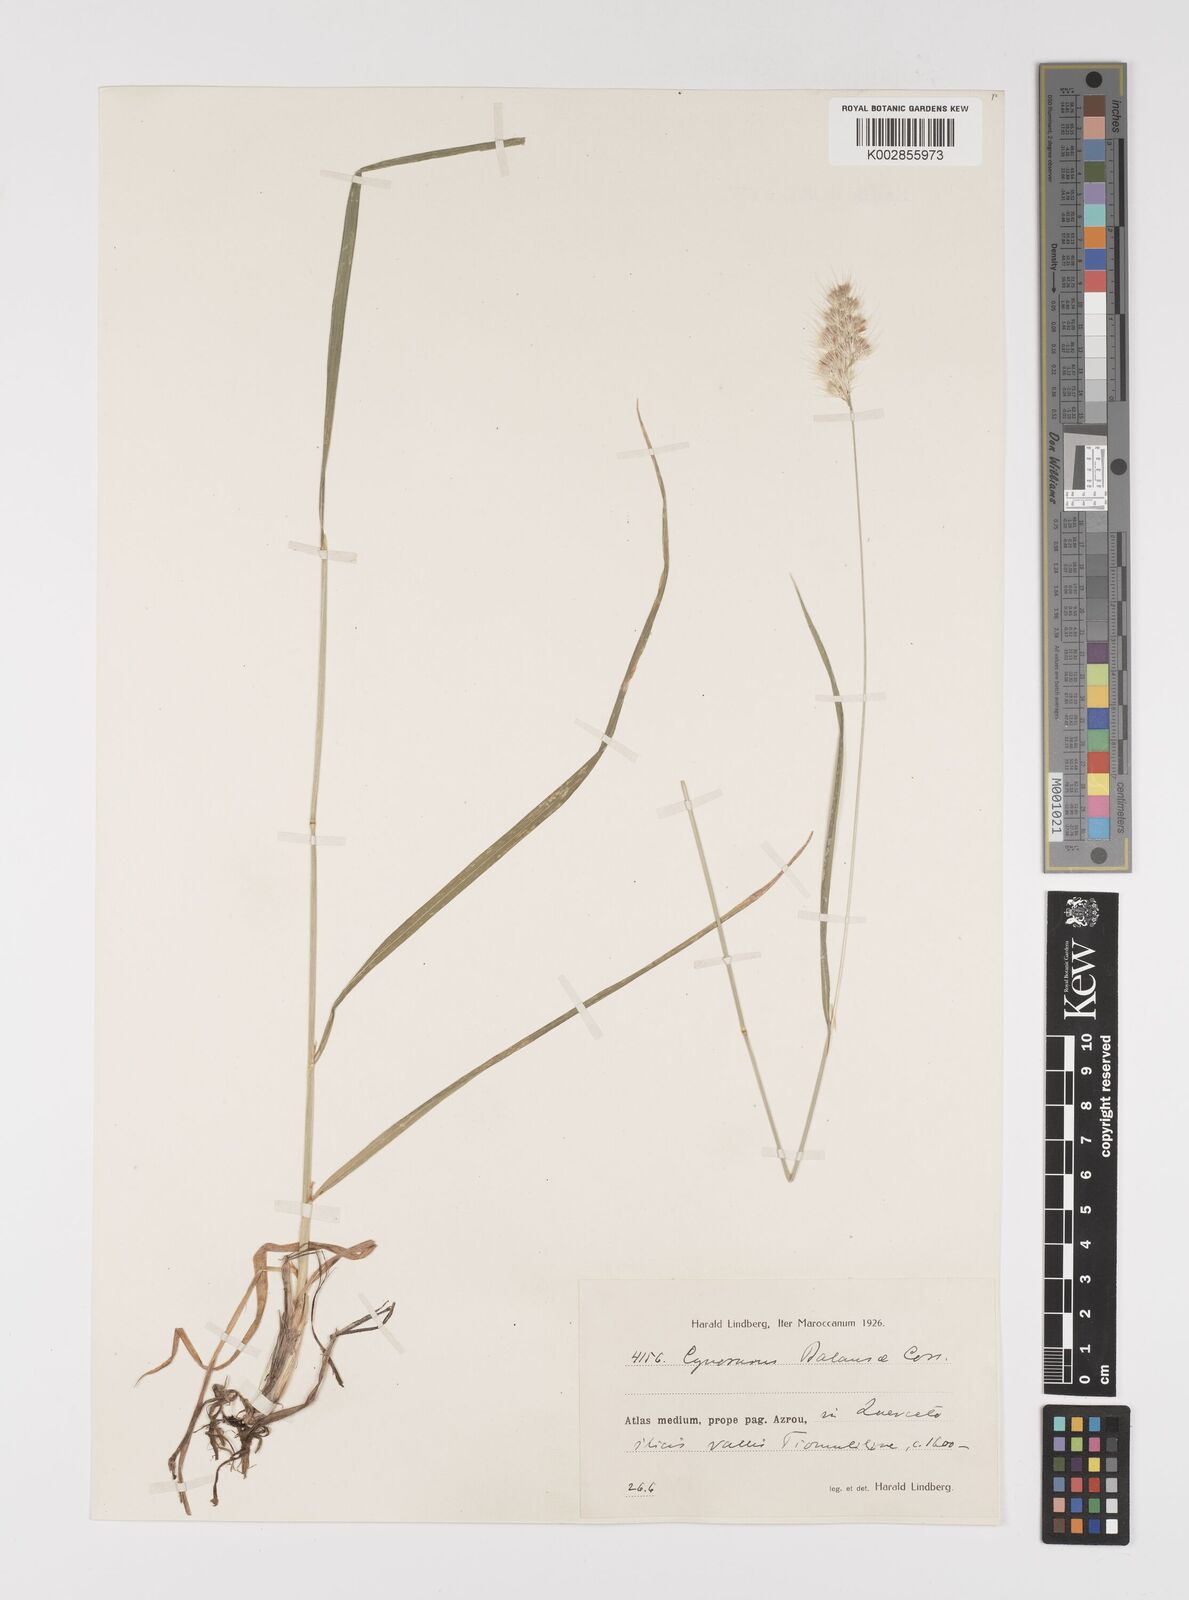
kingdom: Plantae
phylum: Tracheophyta
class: Liliopsida
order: Poales
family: Poaceae
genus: Cynosurus
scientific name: Cynosurus balansae
